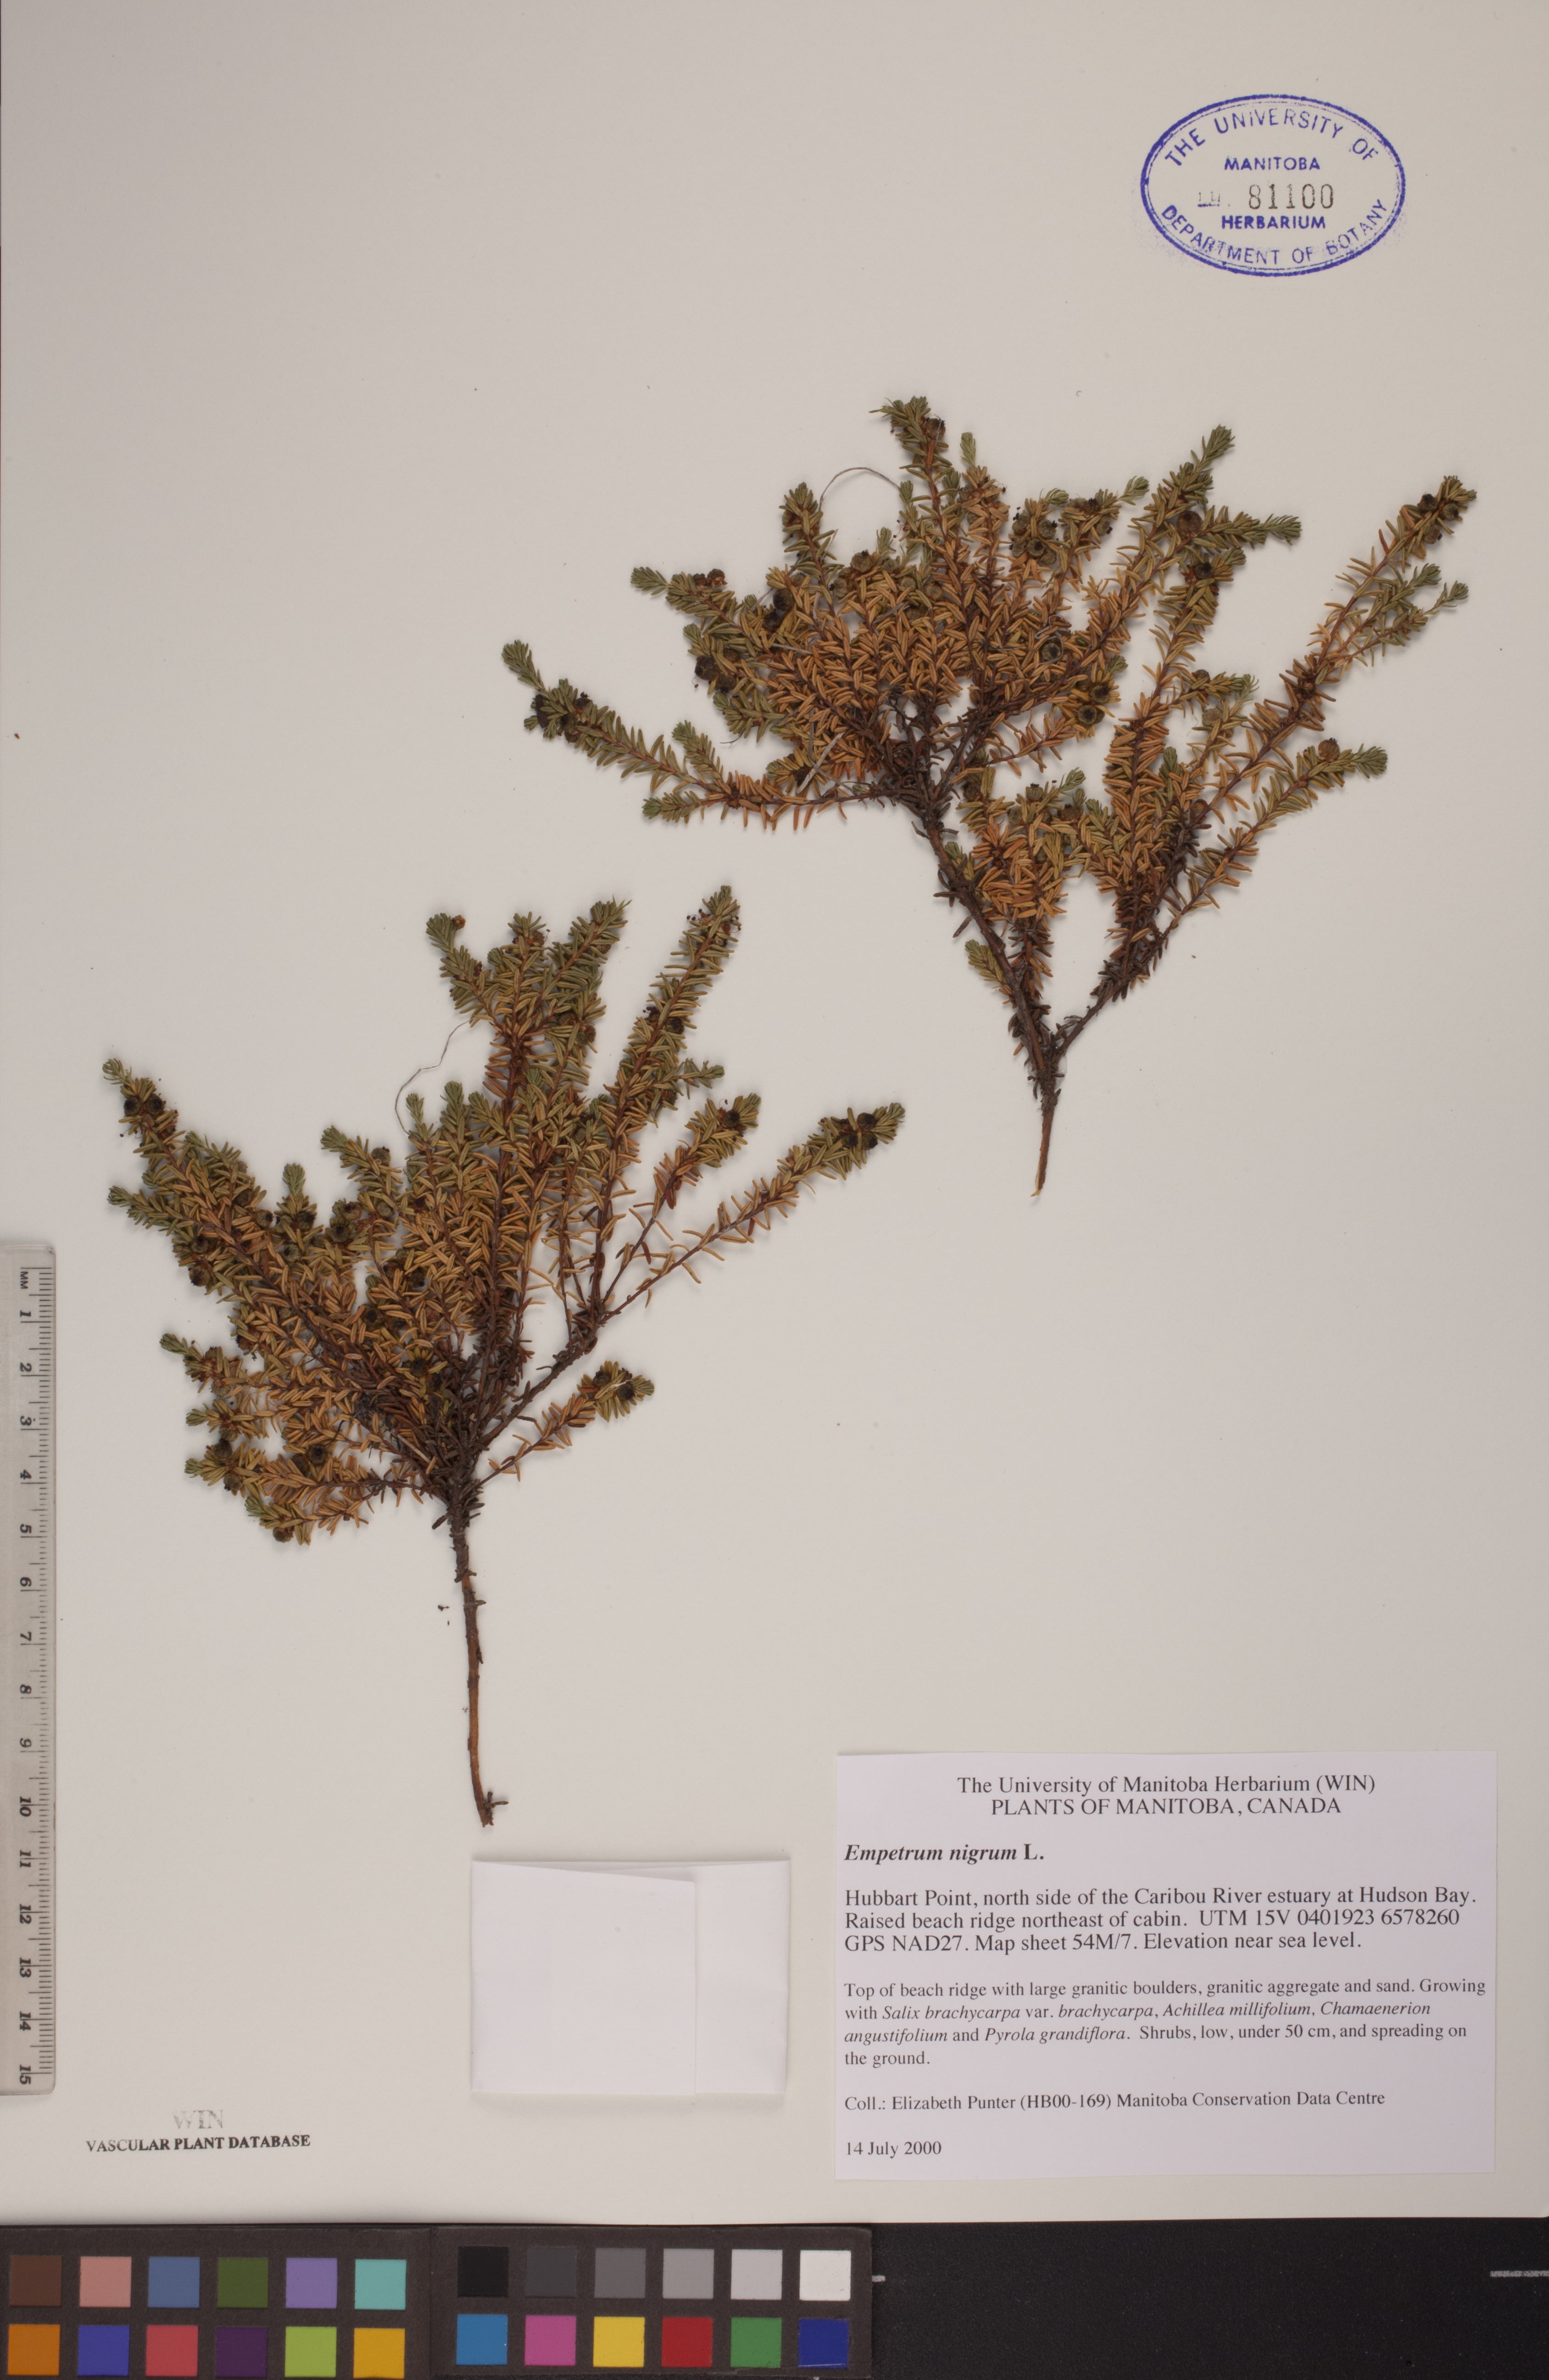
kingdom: Plantae
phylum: Tracheophyta
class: Magnoliopsida
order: Ericales
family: Ericaceae
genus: Empetrum
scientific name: Empetrum nigrum
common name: Black crowberry
